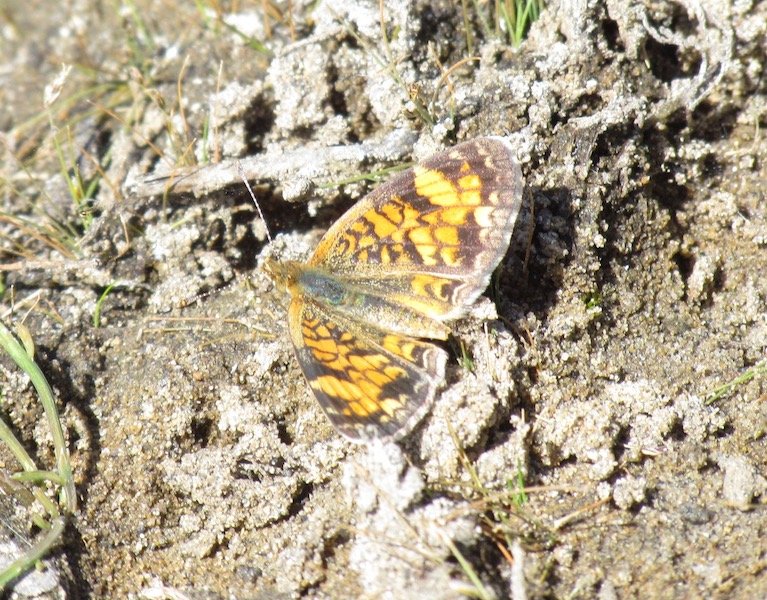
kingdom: Animalia
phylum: Arthropoda
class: Insecta
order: Lepidoptera
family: Nymphalidae
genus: Phyciodes
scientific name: Phyciodes tharos
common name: Pearl Crescent
